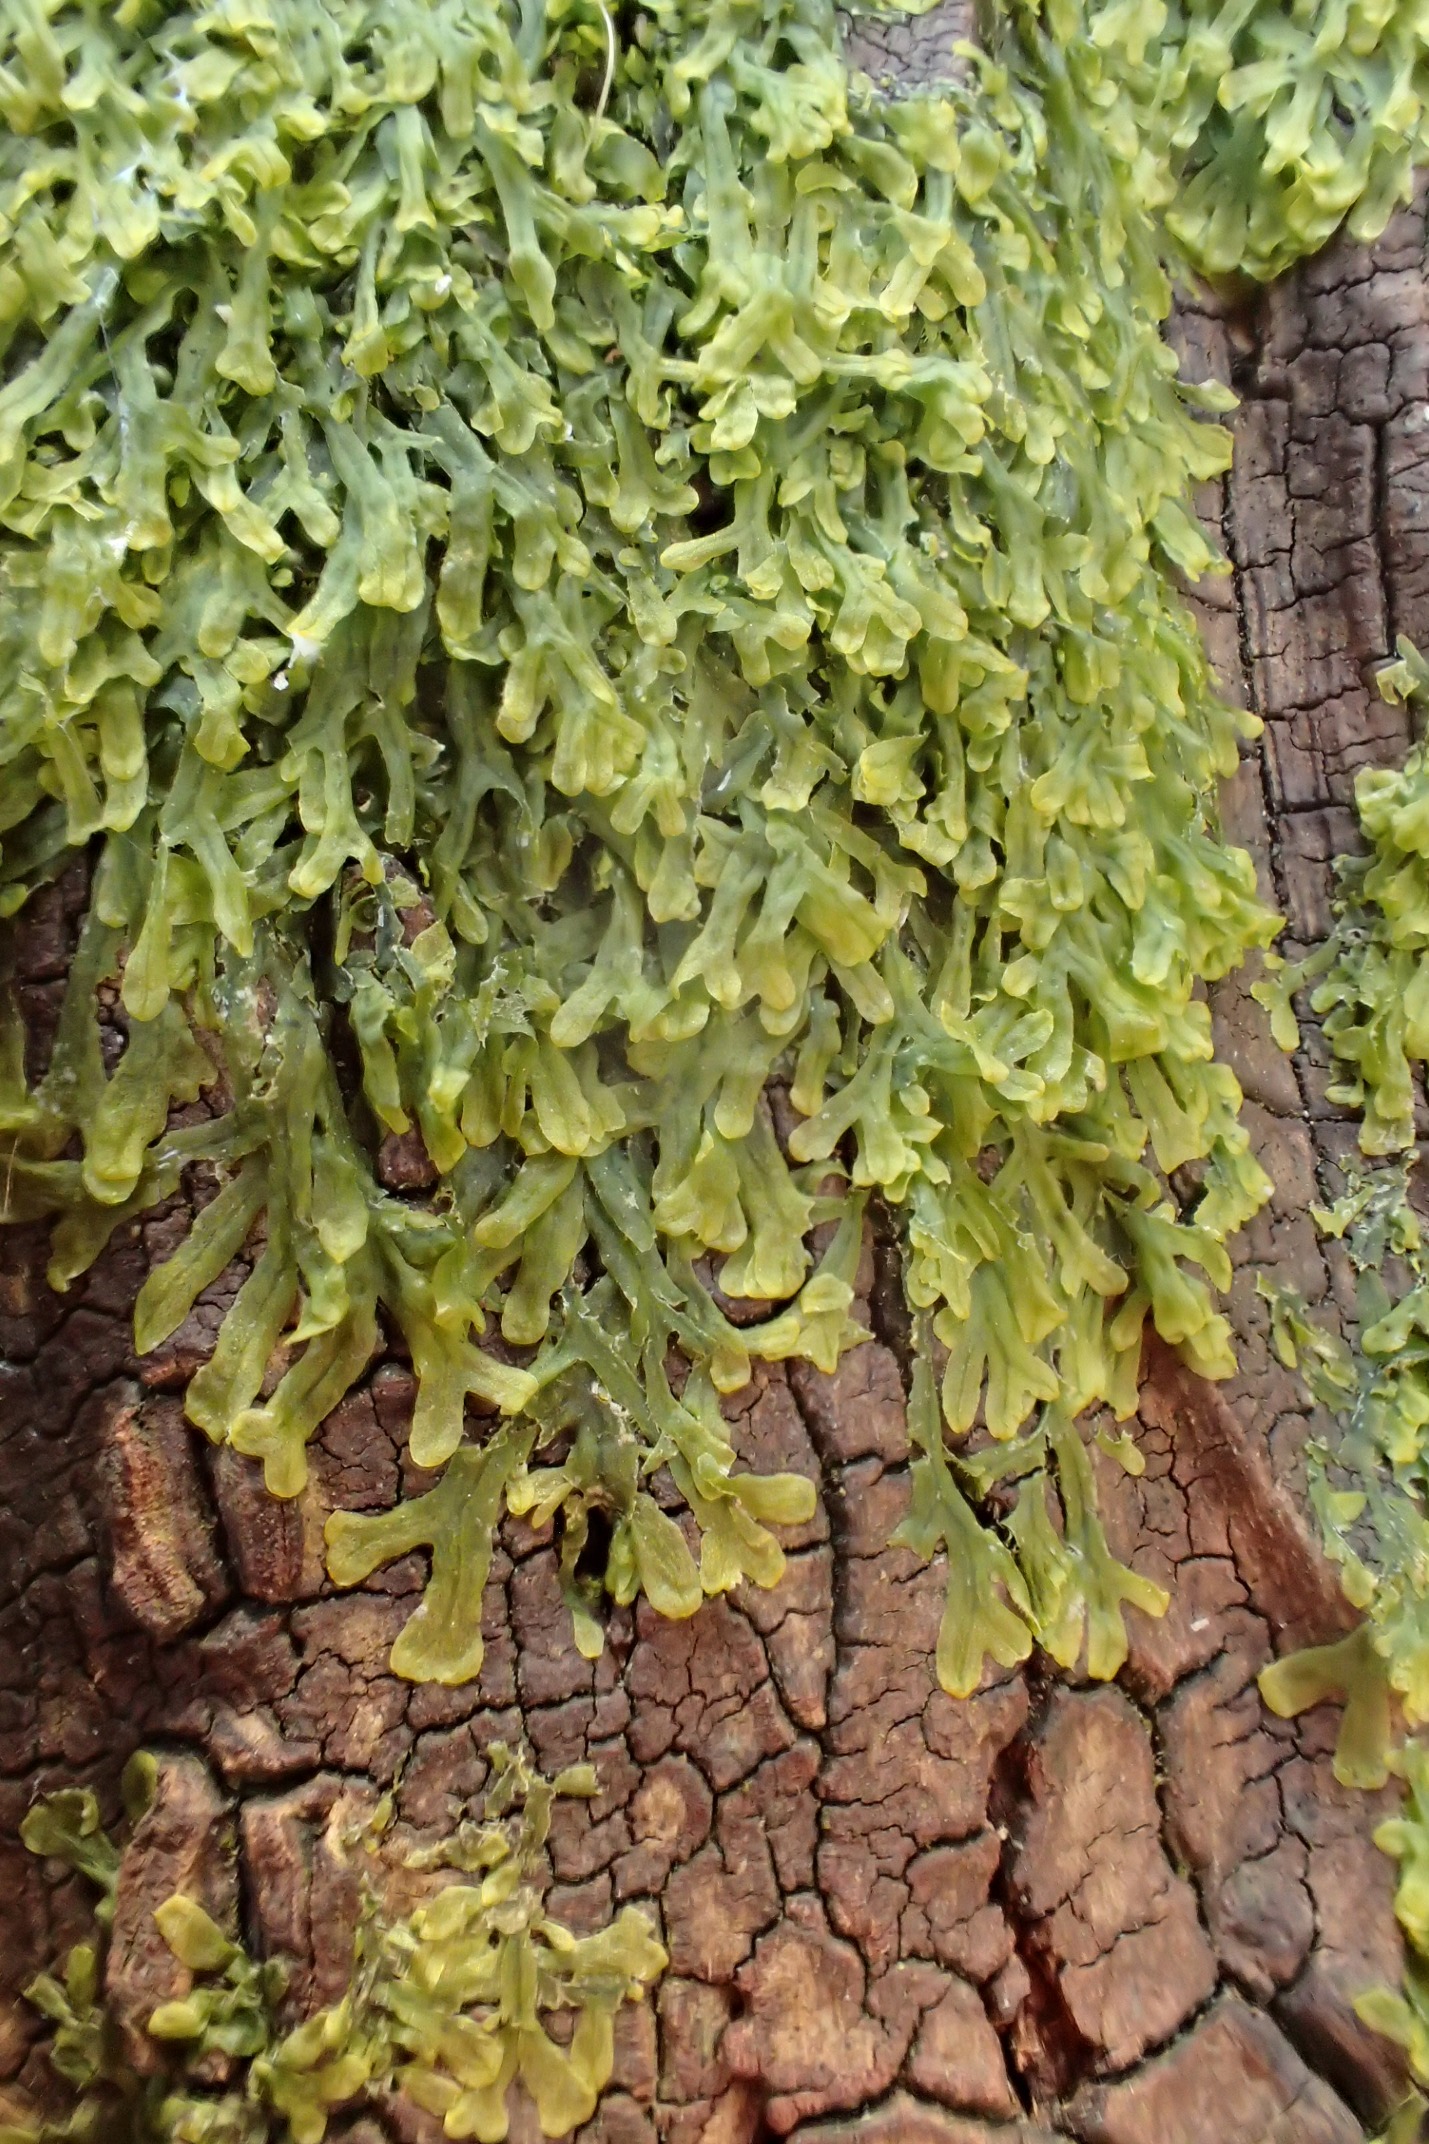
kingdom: Plantae
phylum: Marchantiophyta
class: Jungermanniopsida
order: Metzgeriales
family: Metzgeriaceae
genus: Metzgeria
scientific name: Metzgeria furcata
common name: Almindelig gaffelløv
